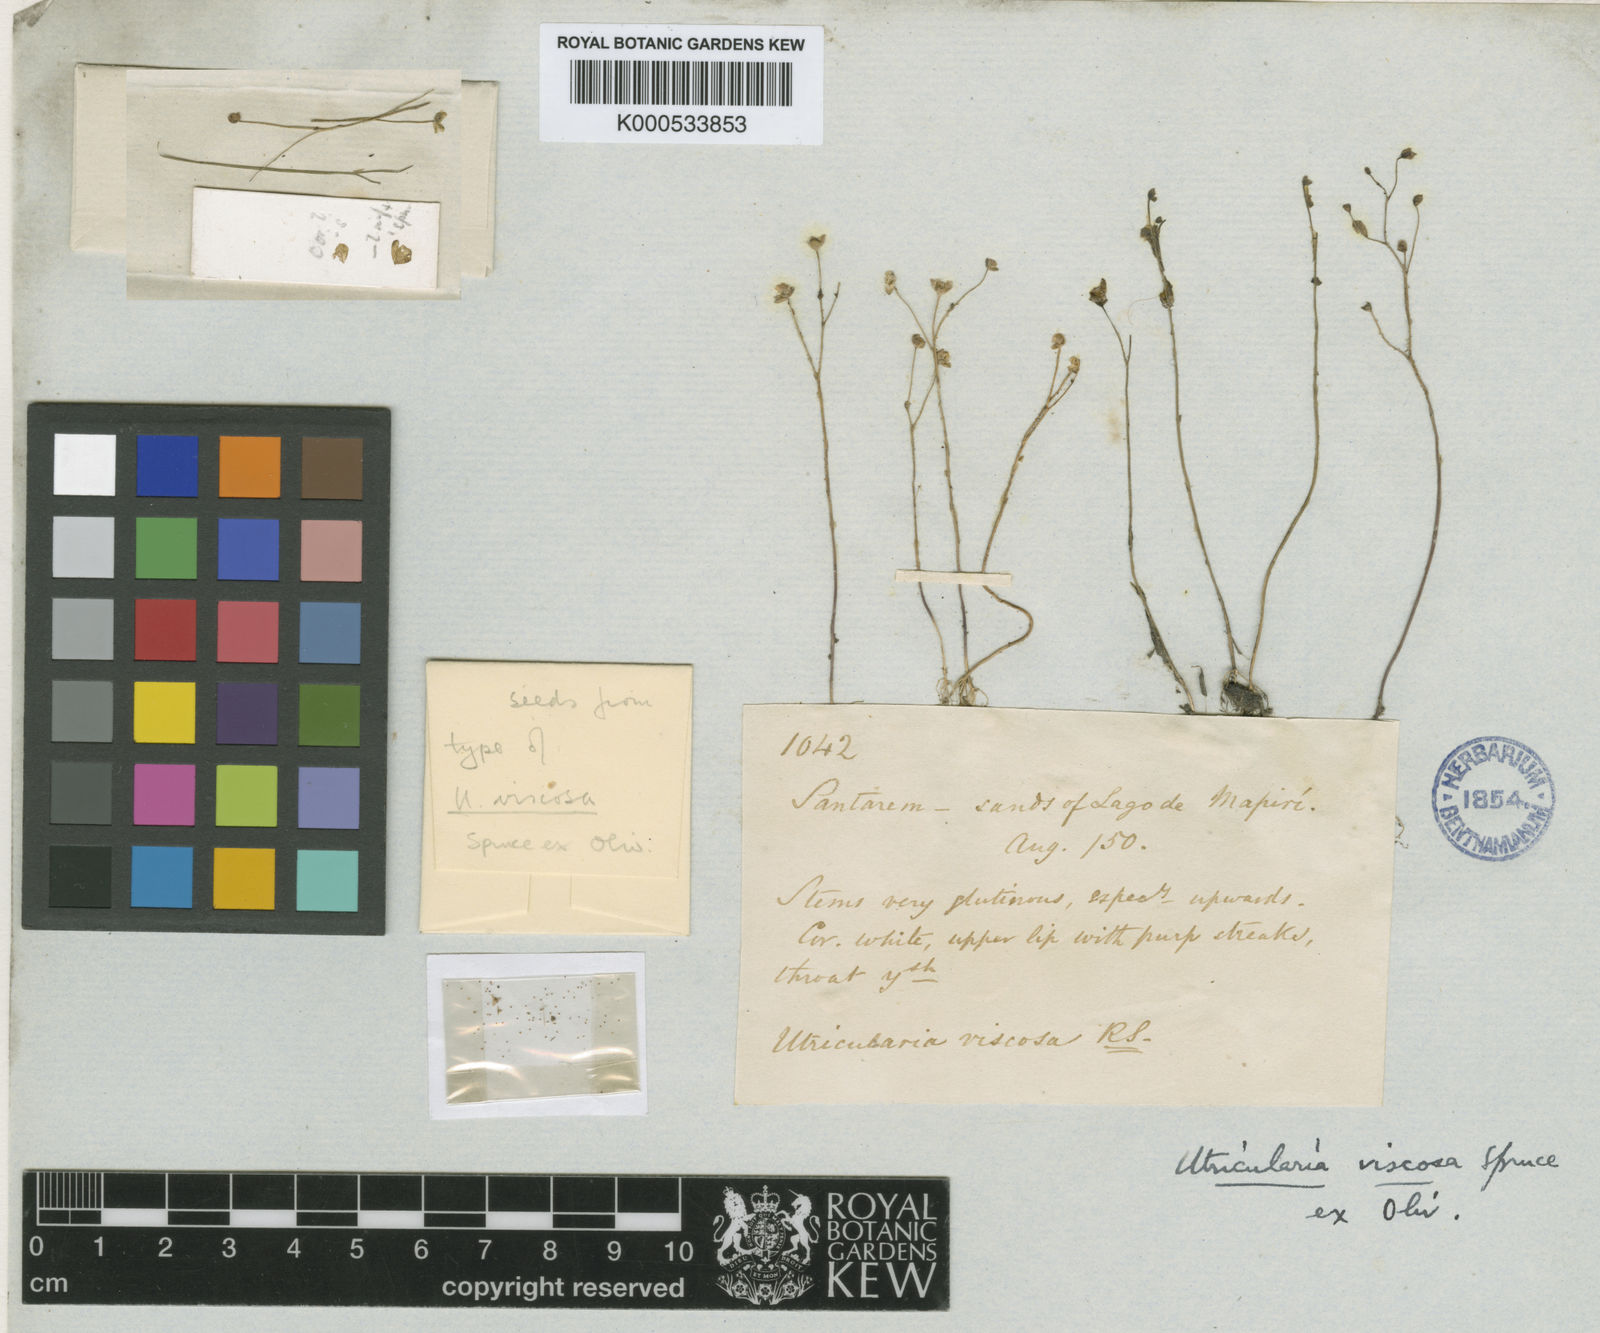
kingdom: Plantae
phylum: Tracheophyta
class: Magnoliopsida
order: Lamiales
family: Lentibulariaceae
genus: Utricularia
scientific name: Utricularia viscosa
